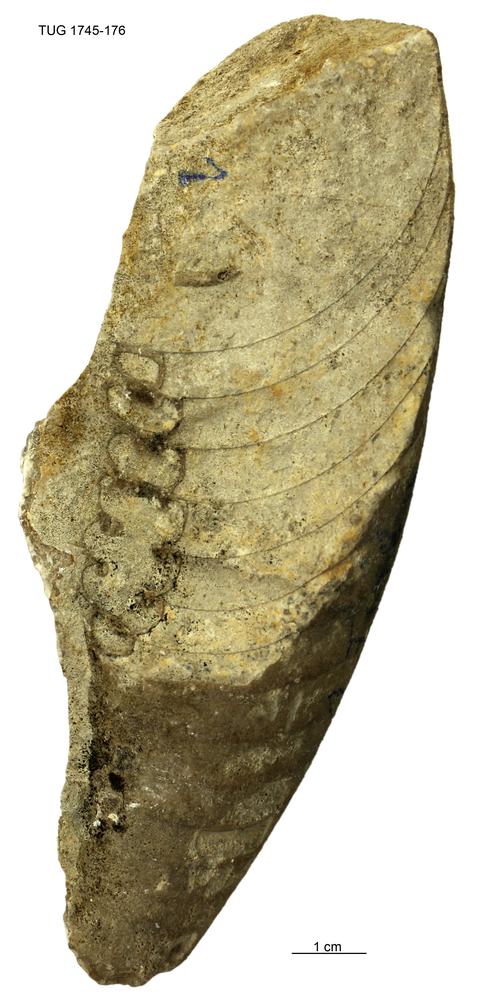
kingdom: Animalia
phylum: Mollusca
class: Cephalopoda
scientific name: Cephalopoda
